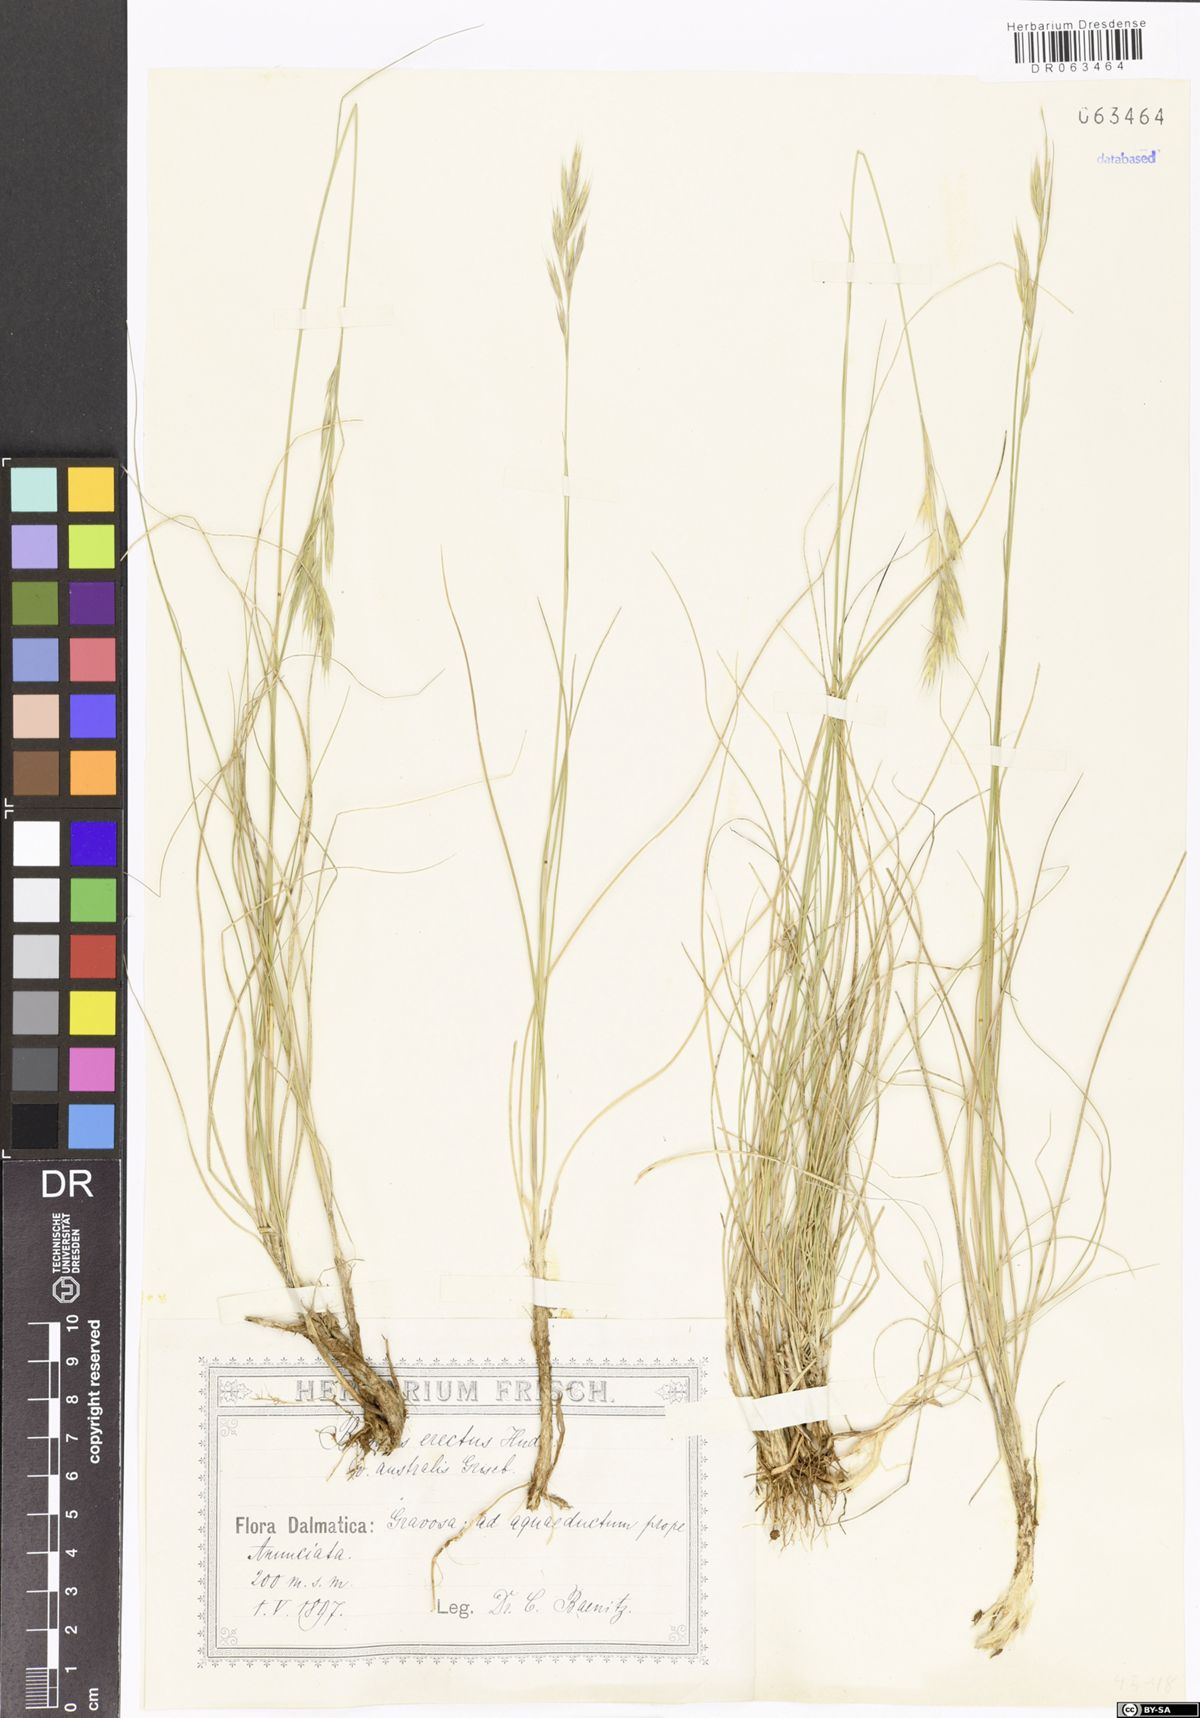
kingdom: Plantae
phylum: Tracheophyta
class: Liliopsida
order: Poales
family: Poaceae
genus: Bromus
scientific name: Bromus erectus
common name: Erect brome
